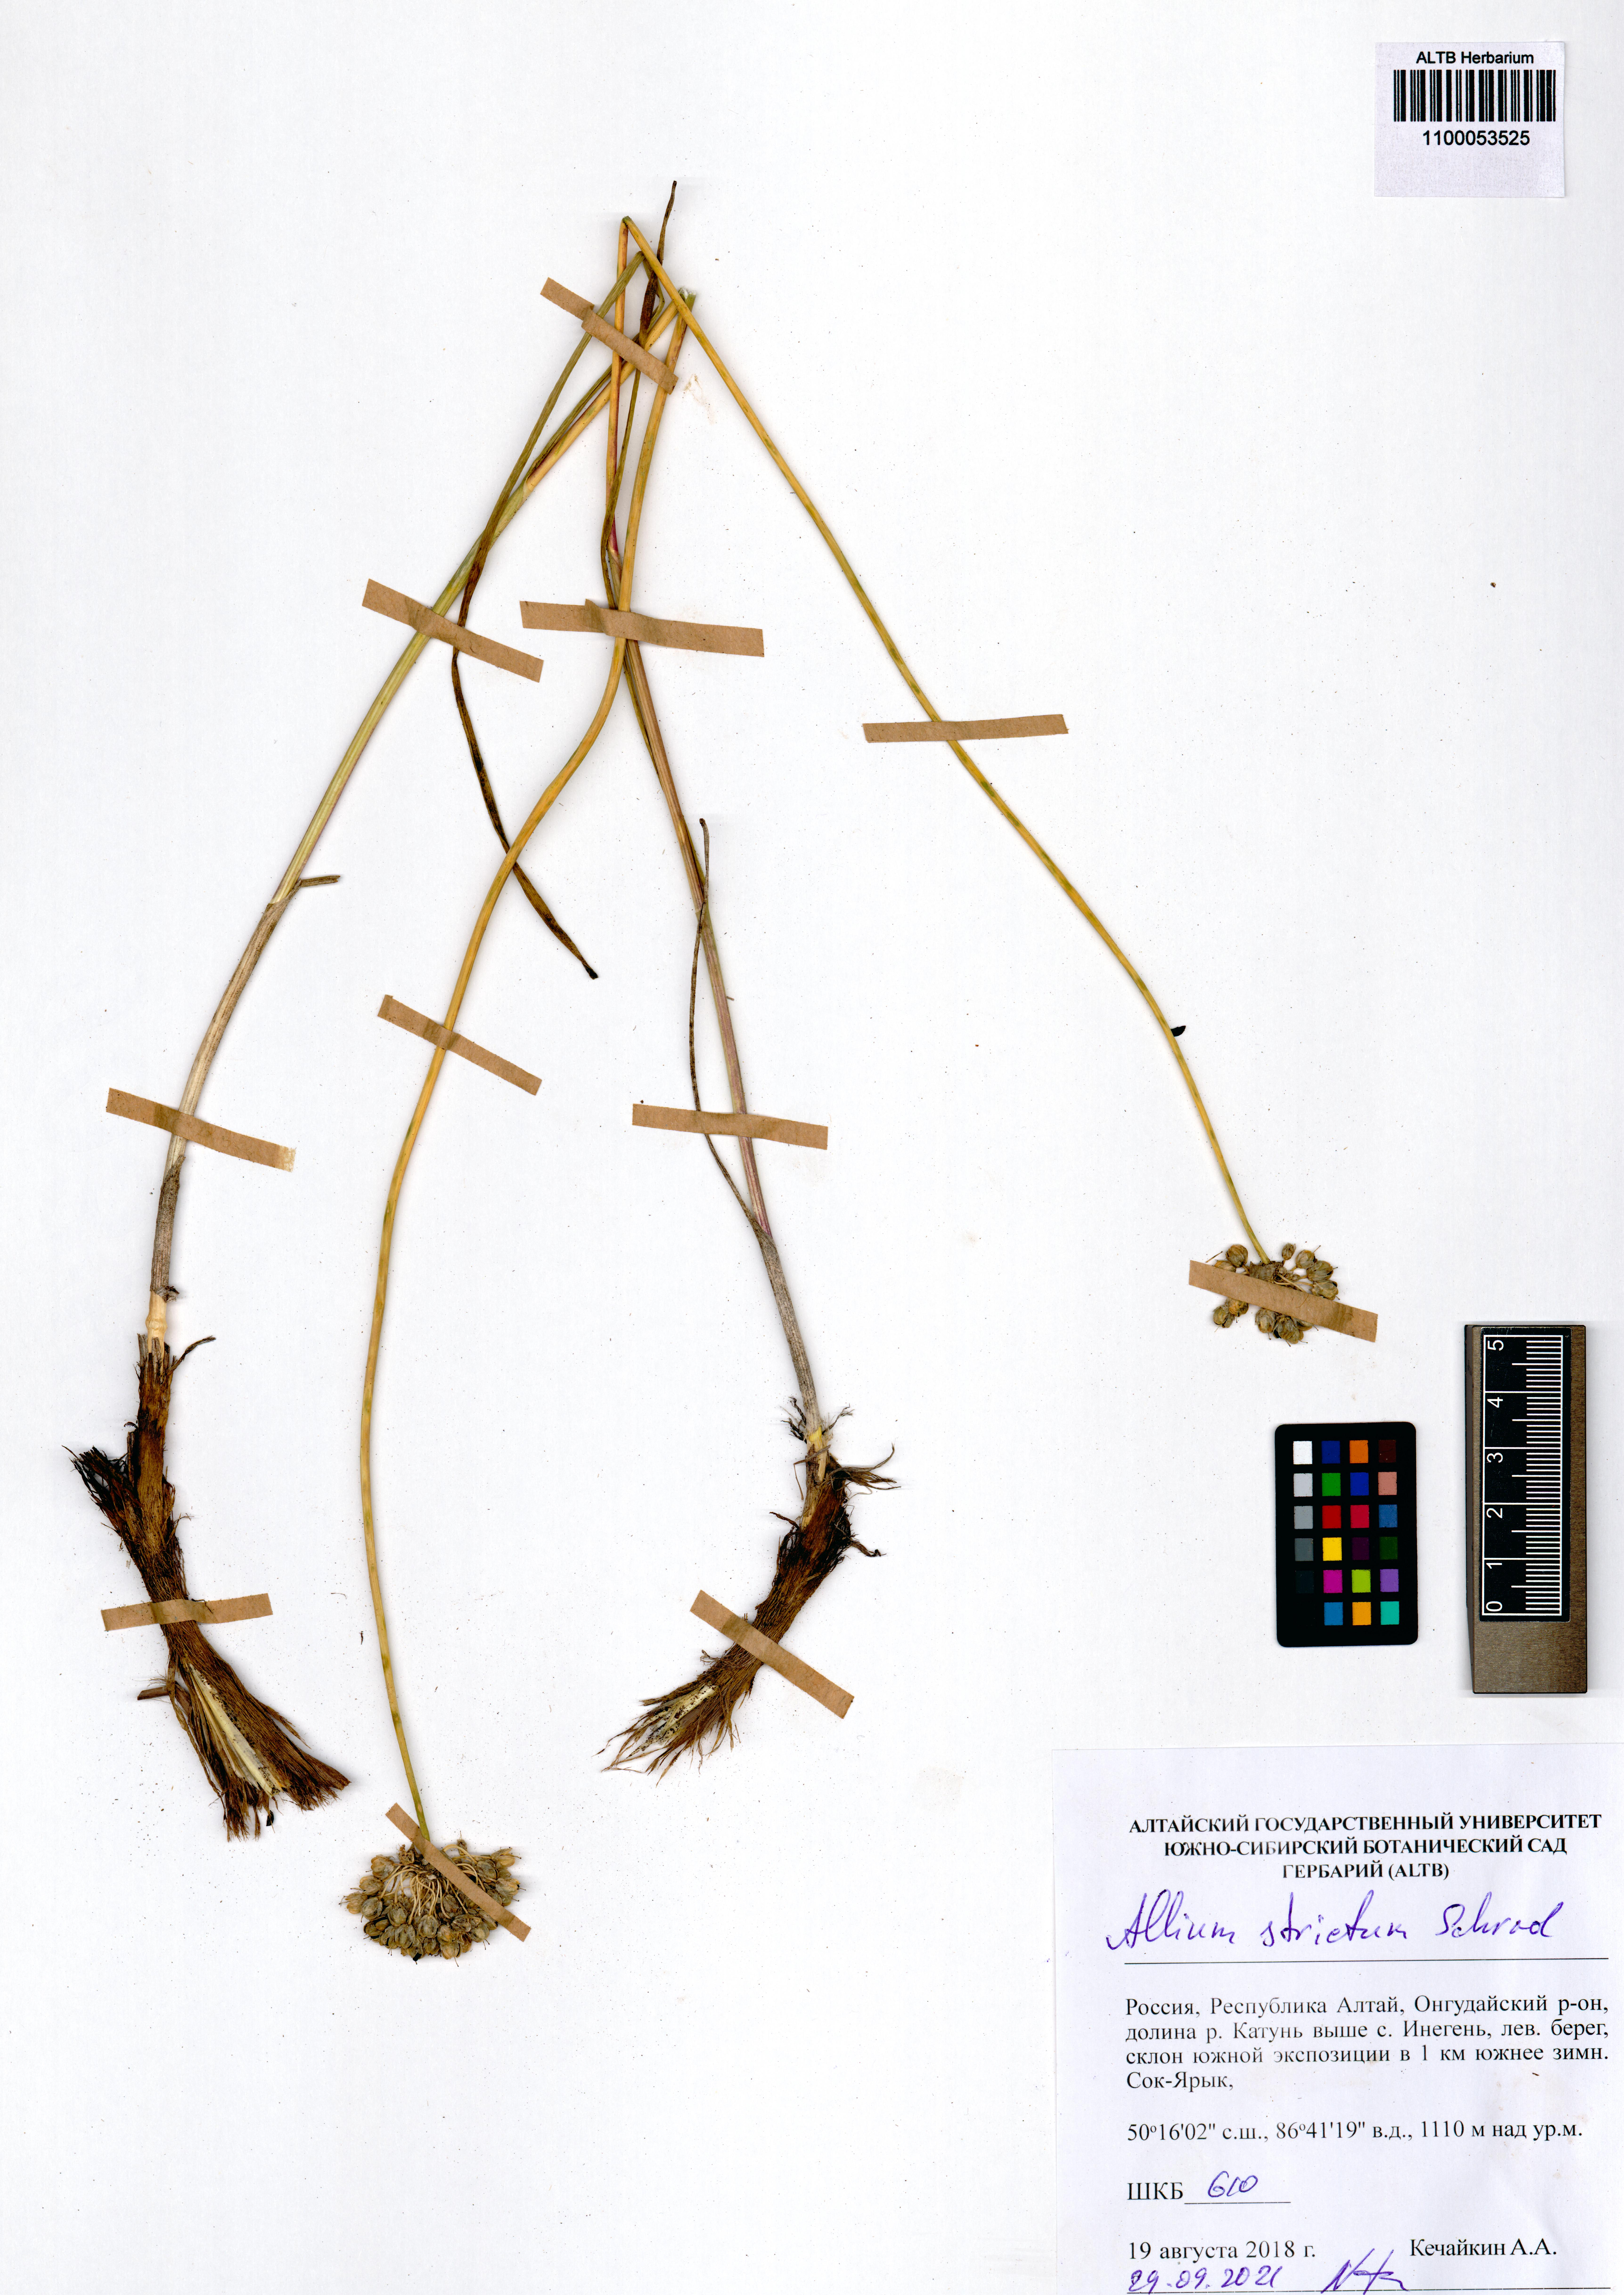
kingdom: Plantae
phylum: Tracheophyta
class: Liliopsida
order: Asparagales
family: Amaryllidaceae
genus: Allium
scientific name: Allium strictum
